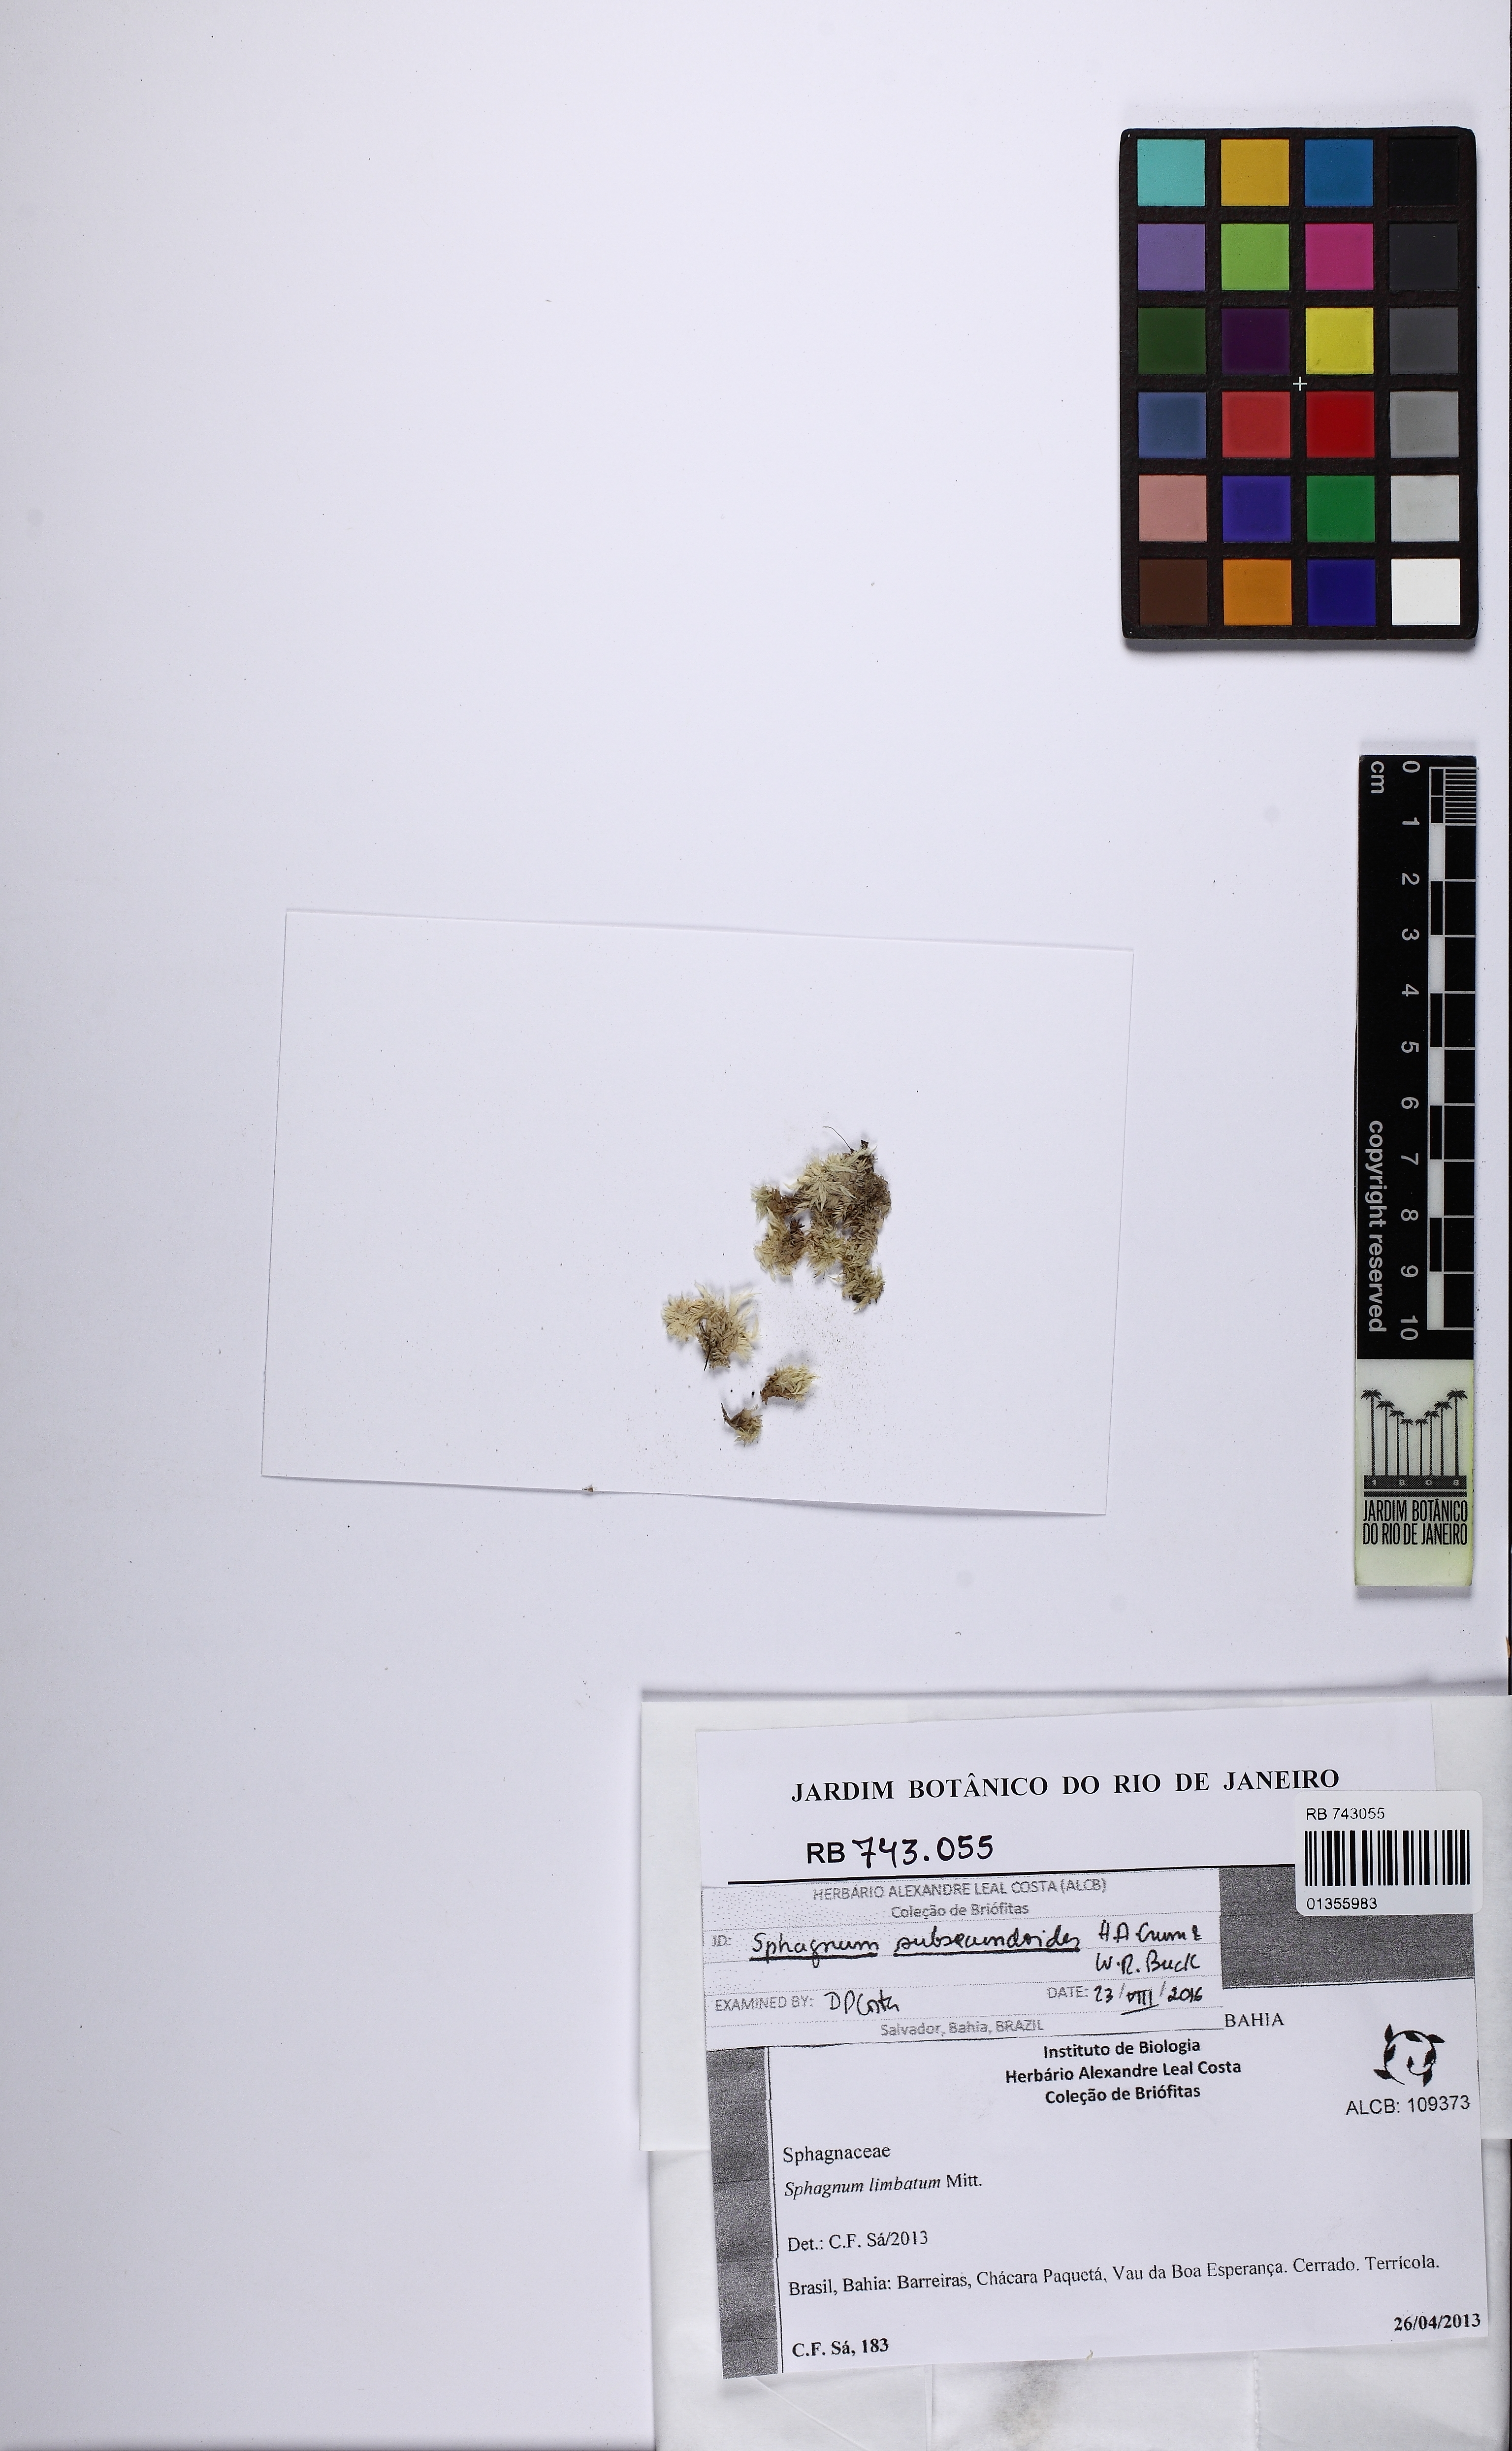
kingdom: Plantae
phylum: Bryophyta
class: Sphagnopsida
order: Sphagnales
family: Sphagnaceae
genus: Sphagnum
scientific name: Sphagnum subsecundoides
